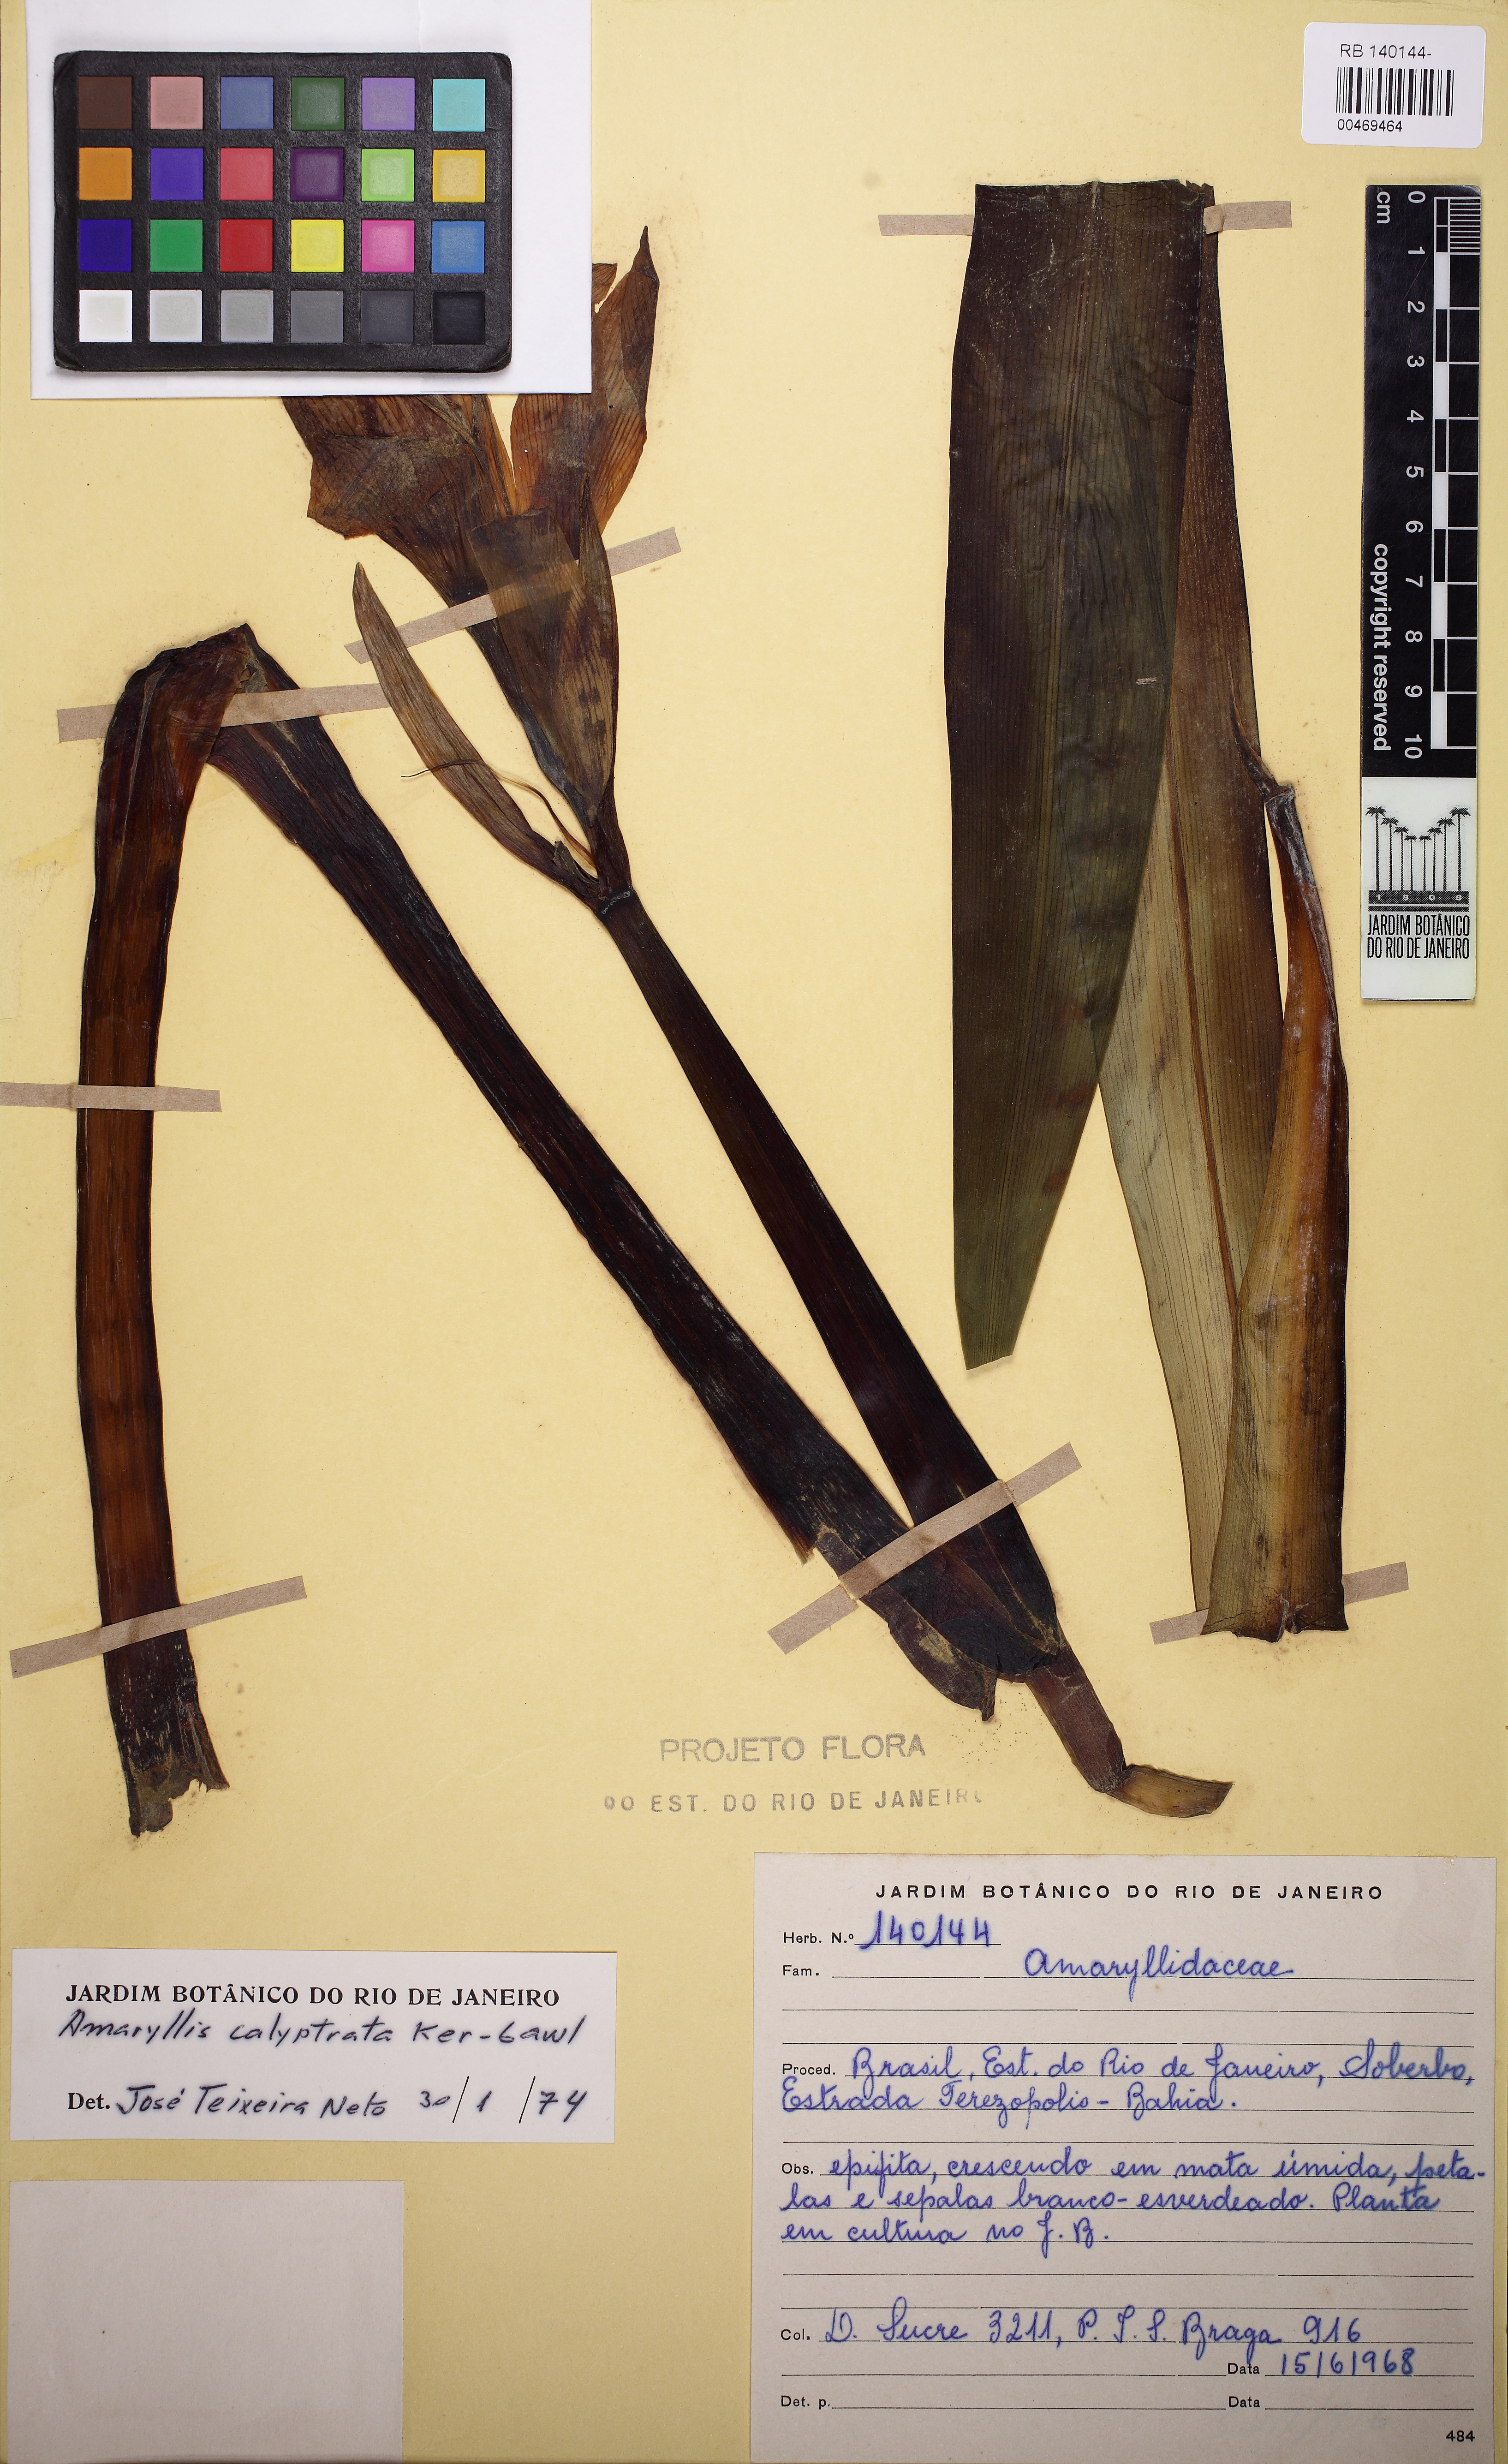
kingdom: Plantae
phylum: Tracheophyta
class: Liliopsida
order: Asparagales
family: Amaryllidaceae
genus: Hippeastrum
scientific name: Hippeastrum calyptratum
